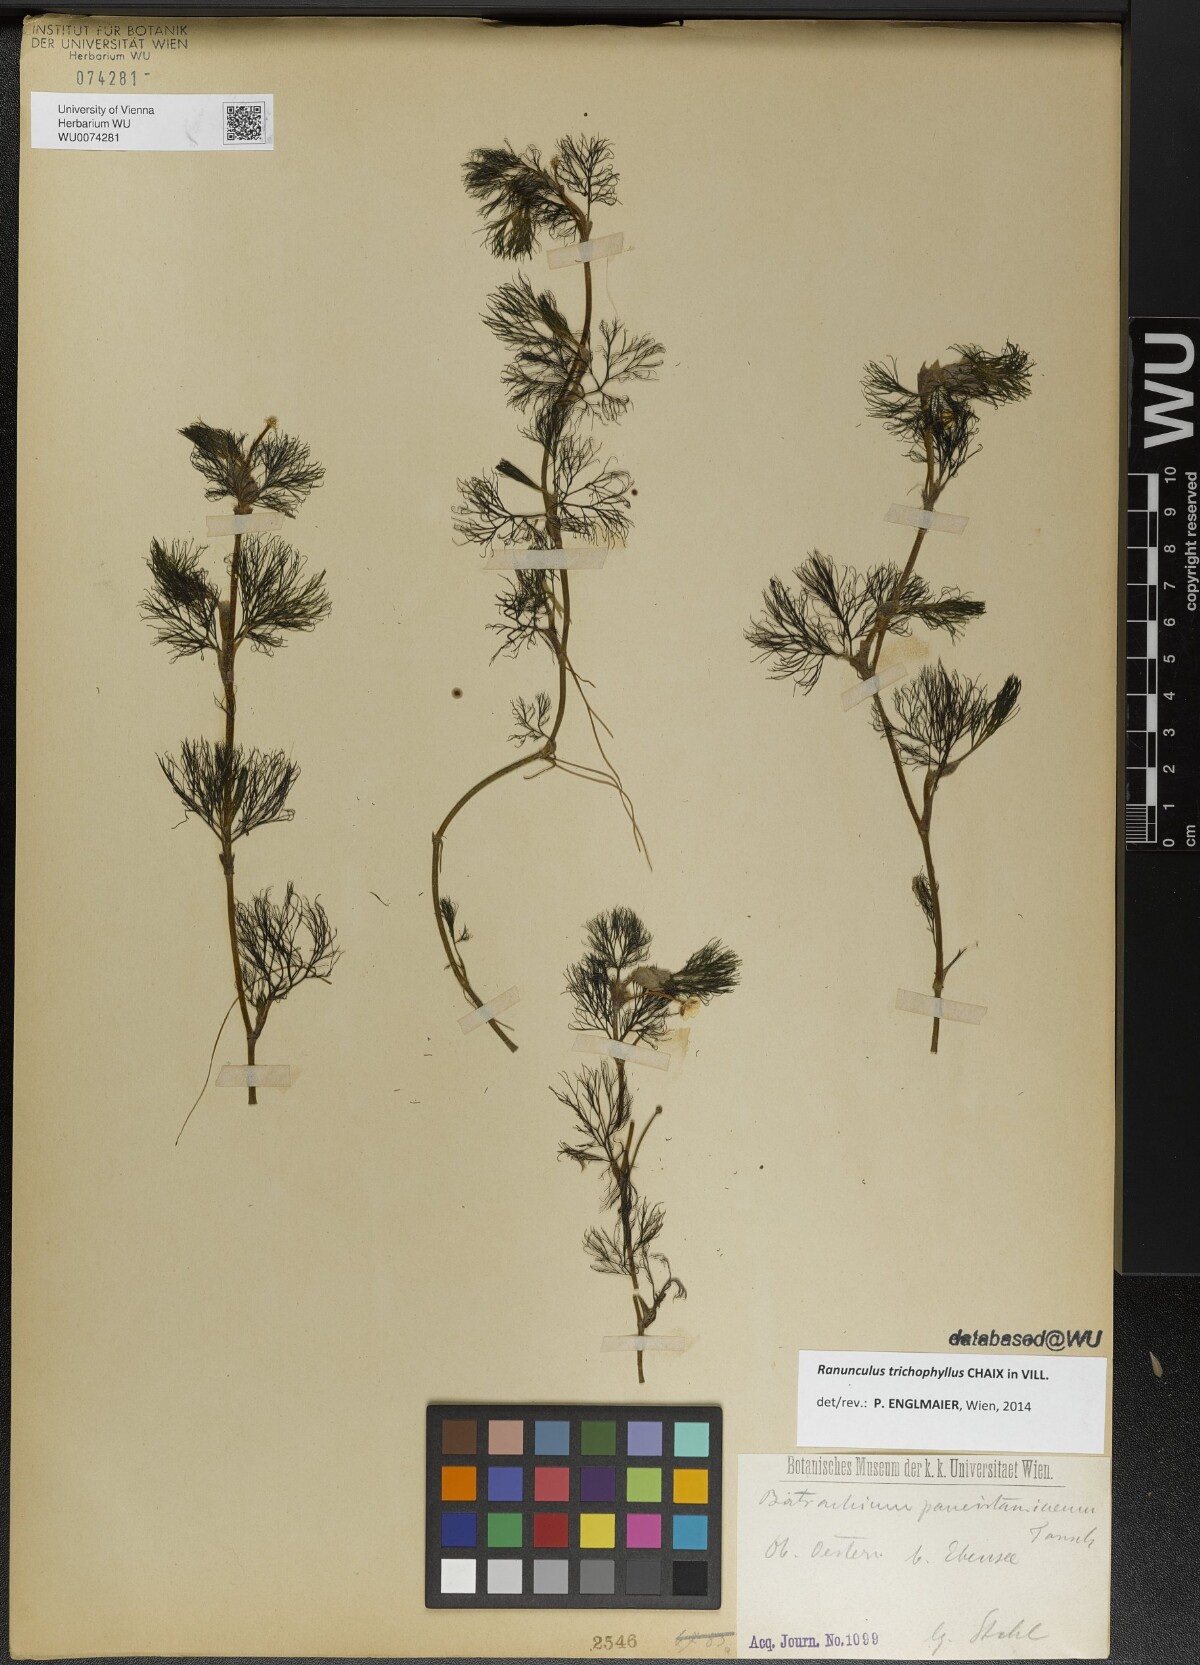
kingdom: Plantae
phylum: Tracheophyta
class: Magnoliopsida
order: Ranunculales
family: Ranunculaceae
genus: Ranunculus
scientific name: Ranunculus trichophyllus
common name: Thread-leaved water-crowfoot
